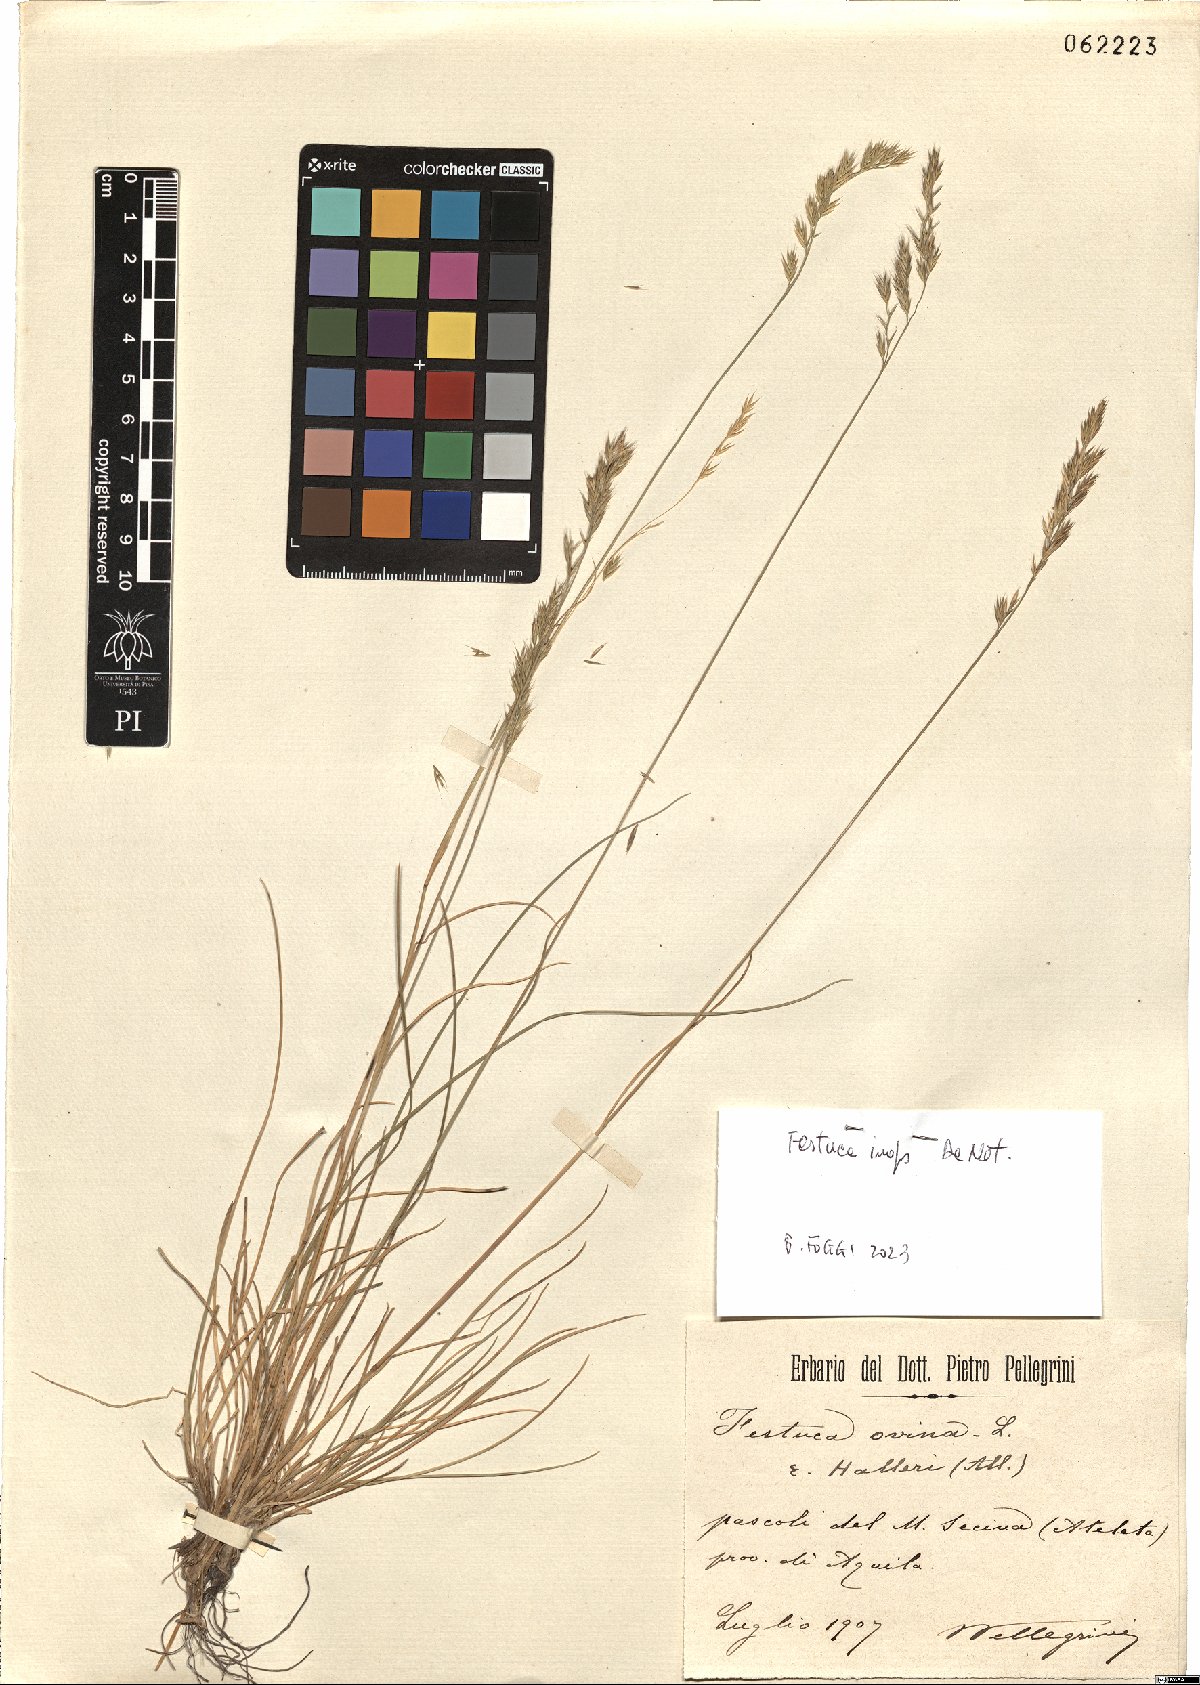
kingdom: Plantae
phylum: Tracheophyta
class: Liliopsida
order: Poales
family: Poaceae
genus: Festuca
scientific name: Festuca inops
